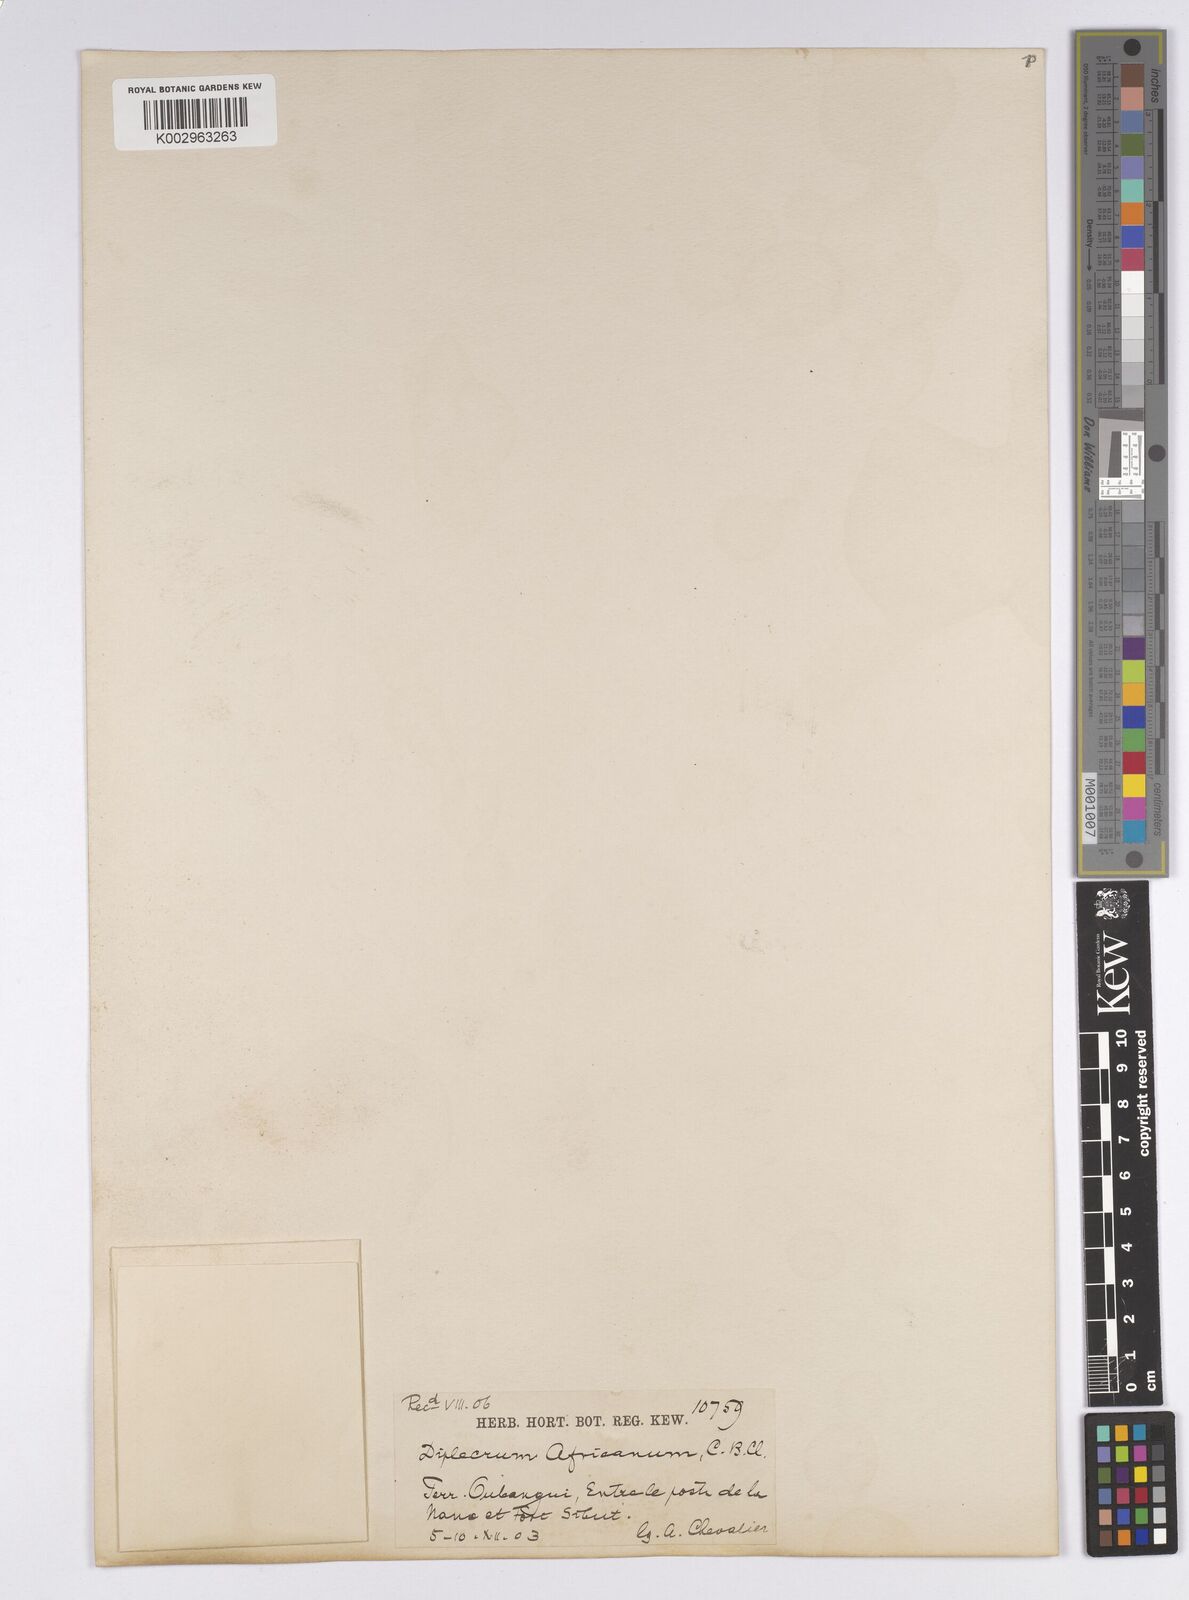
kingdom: Plantae
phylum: Tracheophyta
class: Liliopsida
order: Poales
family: Cyperaceae
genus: Diplacrum
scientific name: Diplacrum africanum
